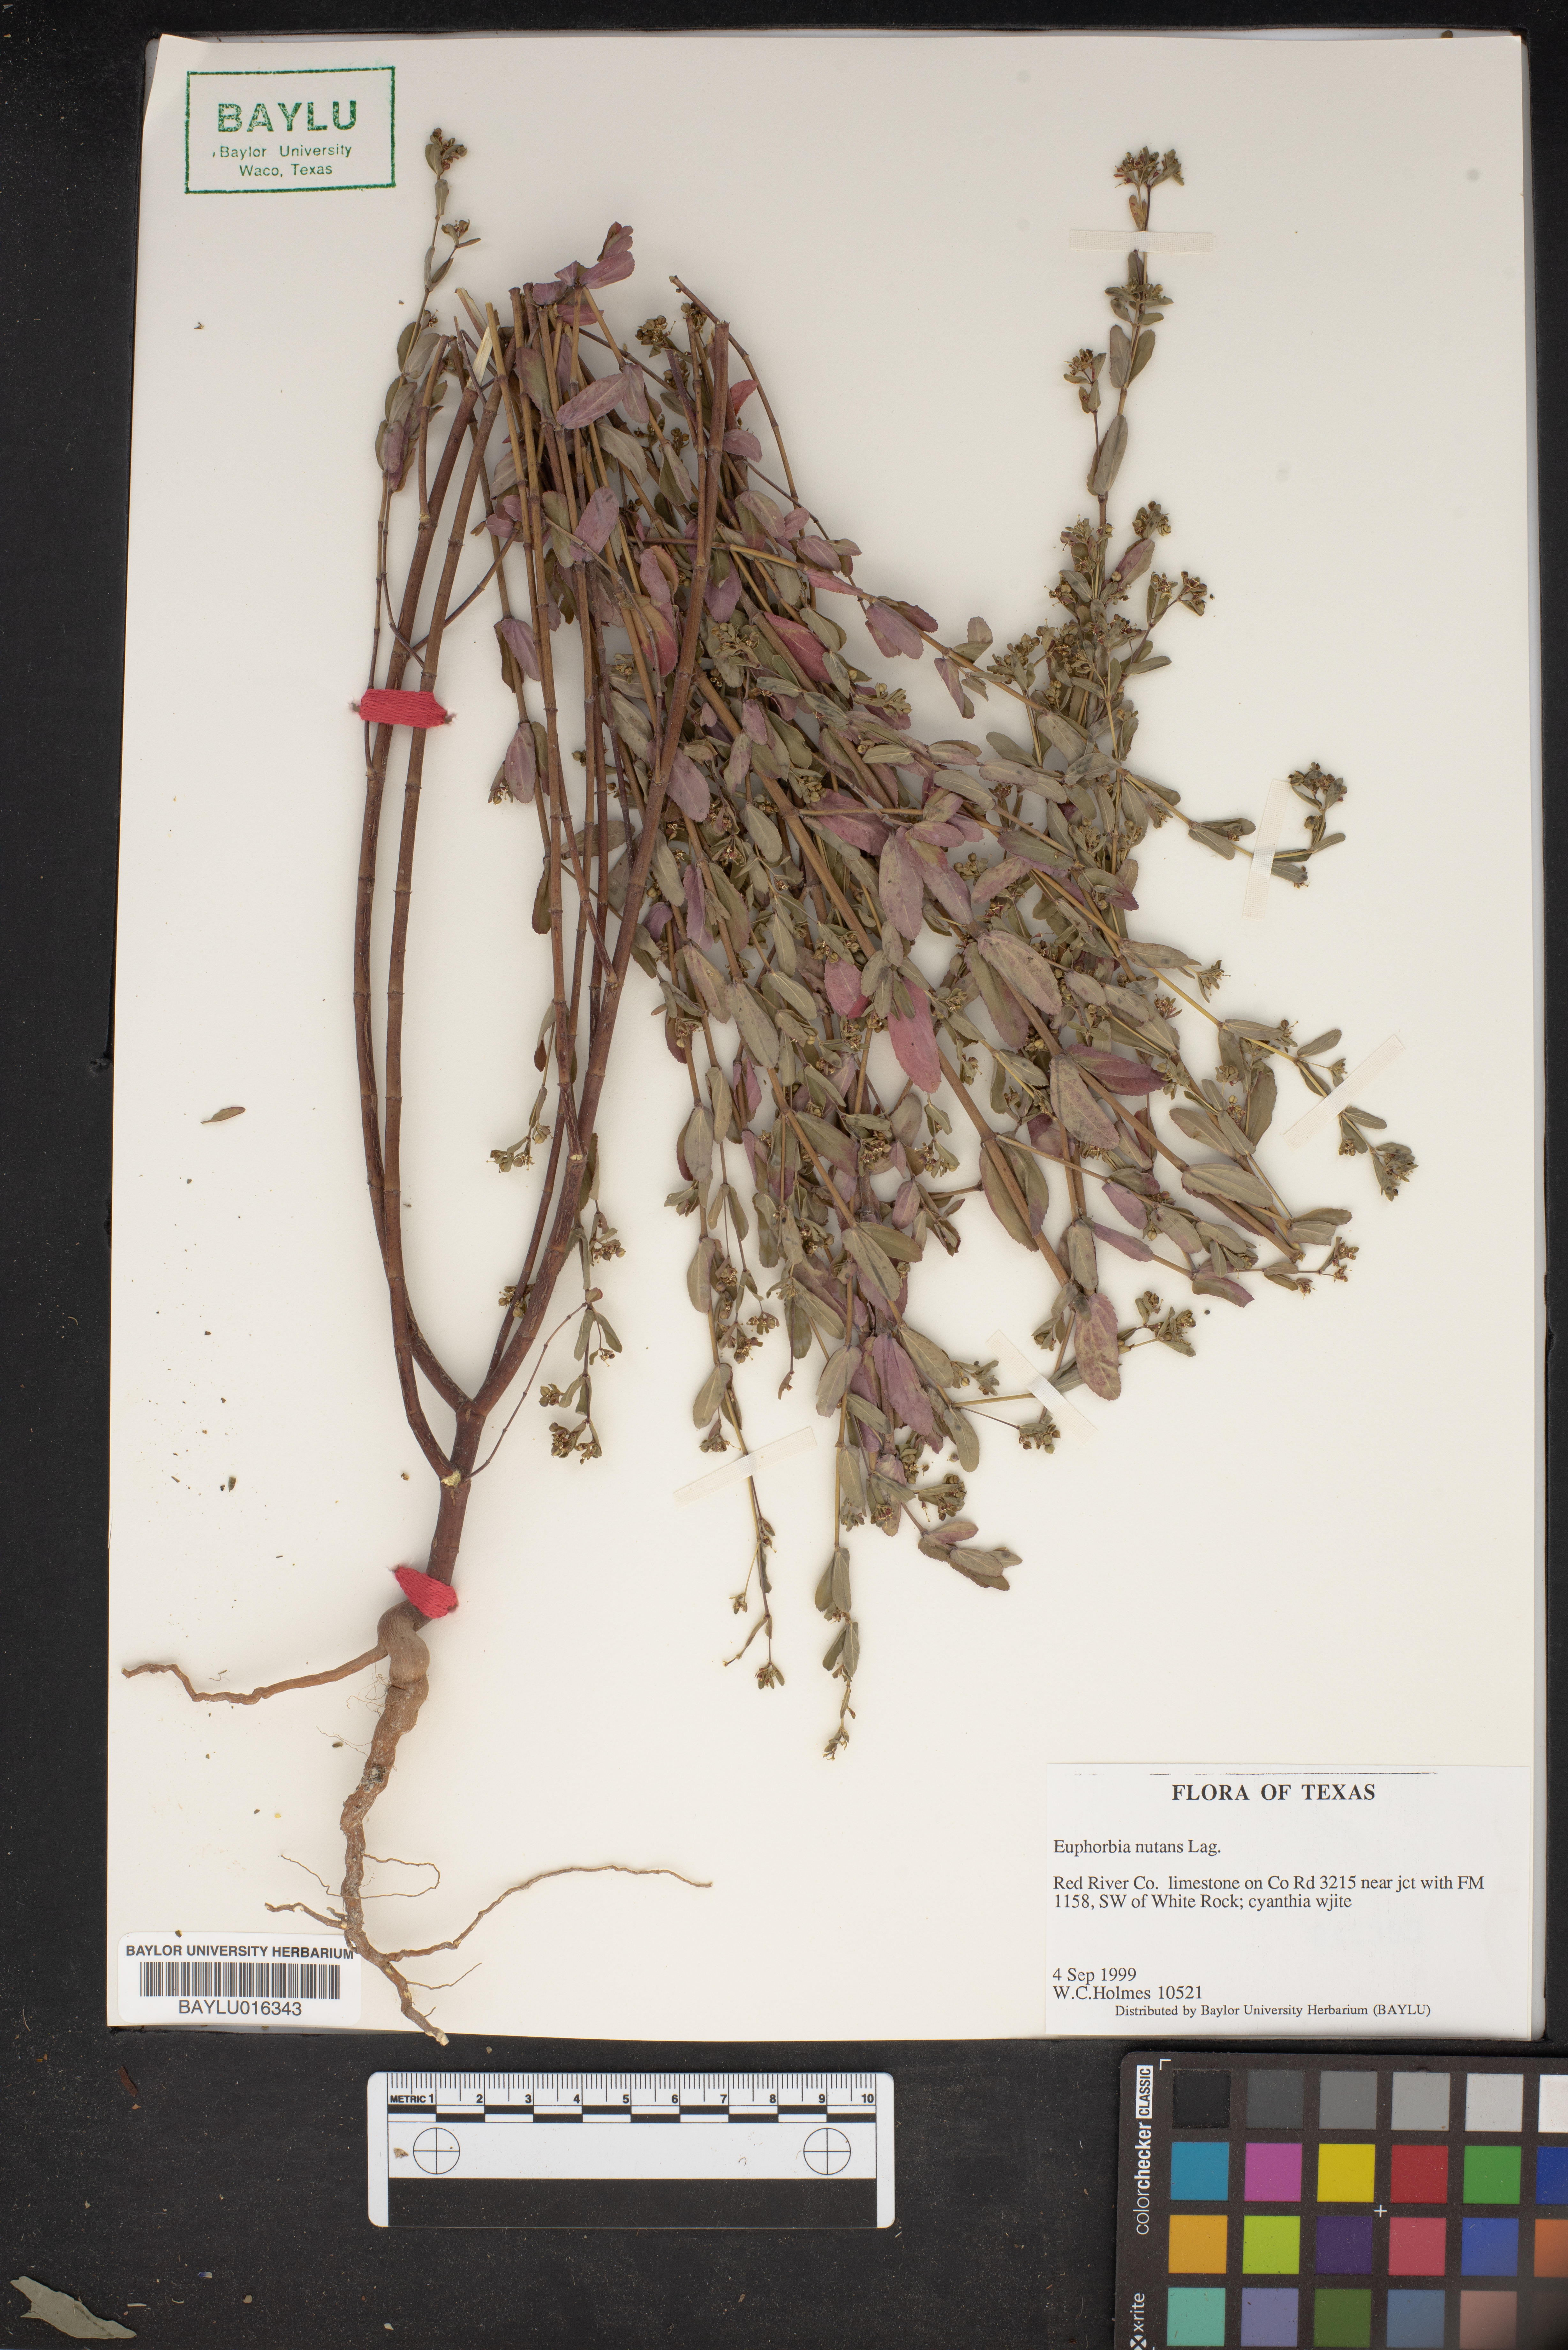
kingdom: Plantae
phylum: Tracheophyta
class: Magnoliopsida
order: Malpighiales
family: Euphorbiaceae
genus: Euphorbia
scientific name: Euphorbia nutans
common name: Eyebane
